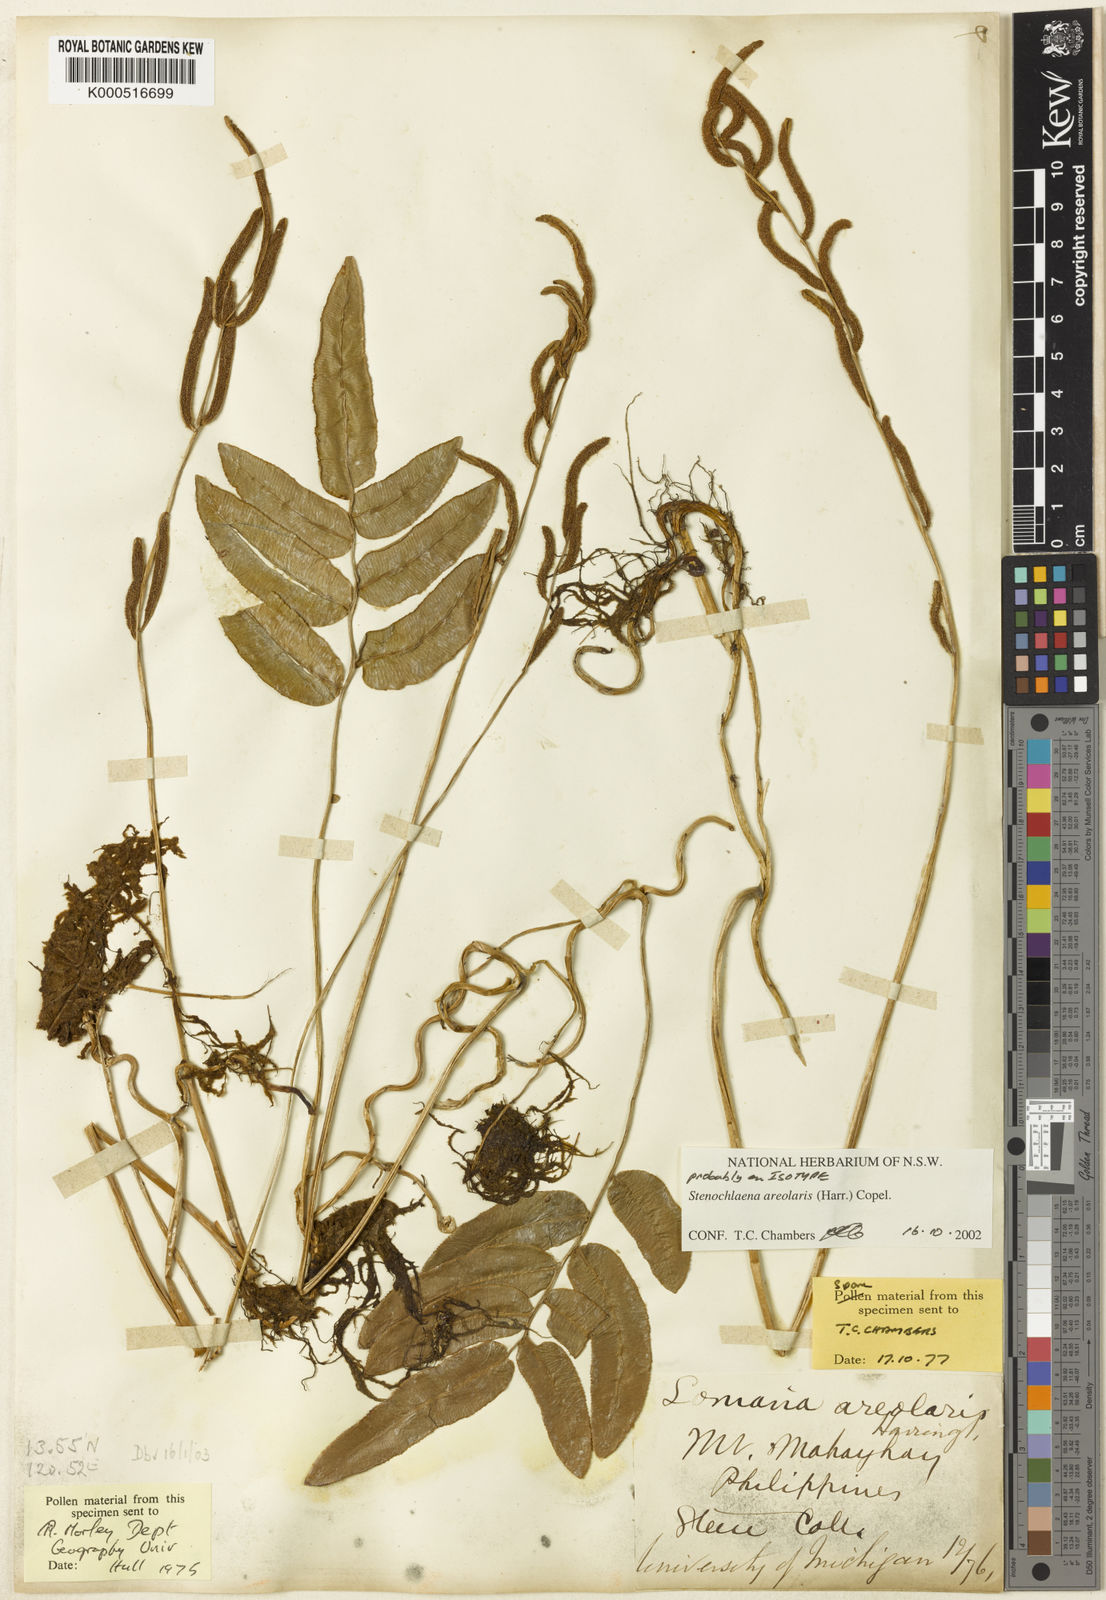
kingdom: Plantae
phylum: Tracheophyta
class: Polypodiopsida
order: Polypodiales
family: Blechnaceae
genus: Stenochlaena
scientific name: Stenochlaena areolaris
